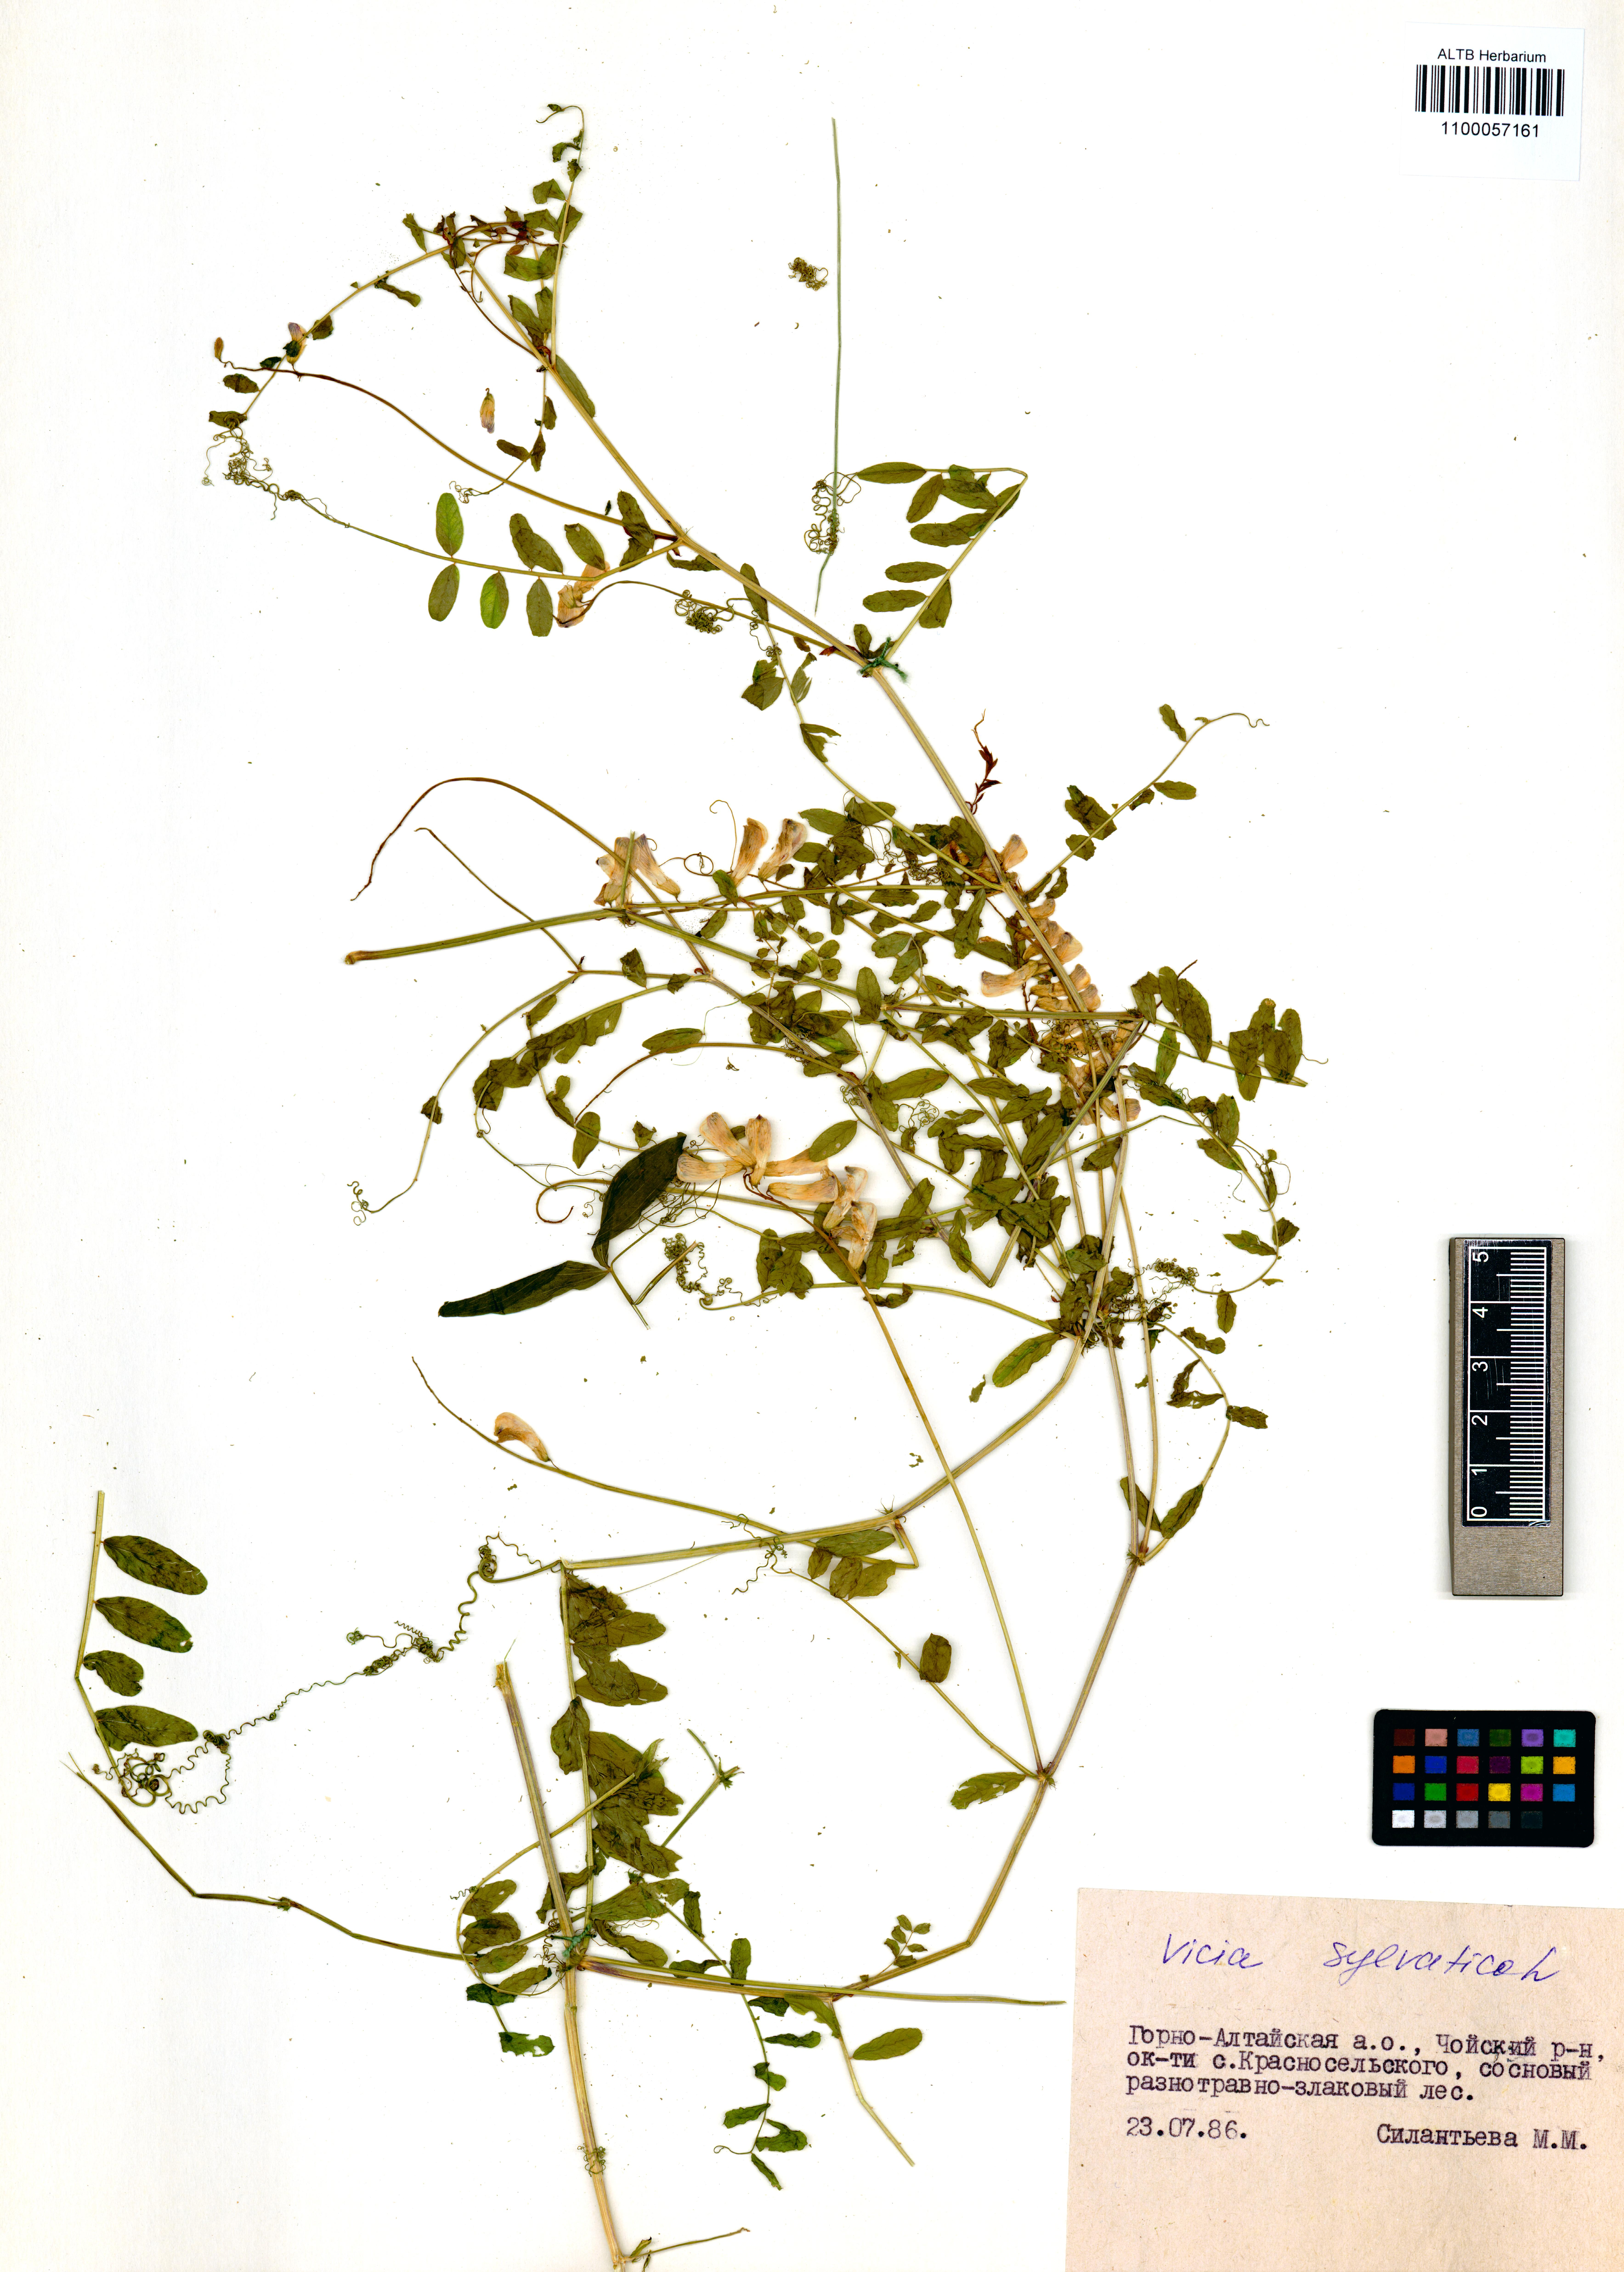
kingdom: Plantae
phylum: Tracheophyta
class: Magnoliopsida
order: Fabales
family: Fabaceae
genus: Vicia
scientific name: Vicia sylvatica
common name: Wood vetch
